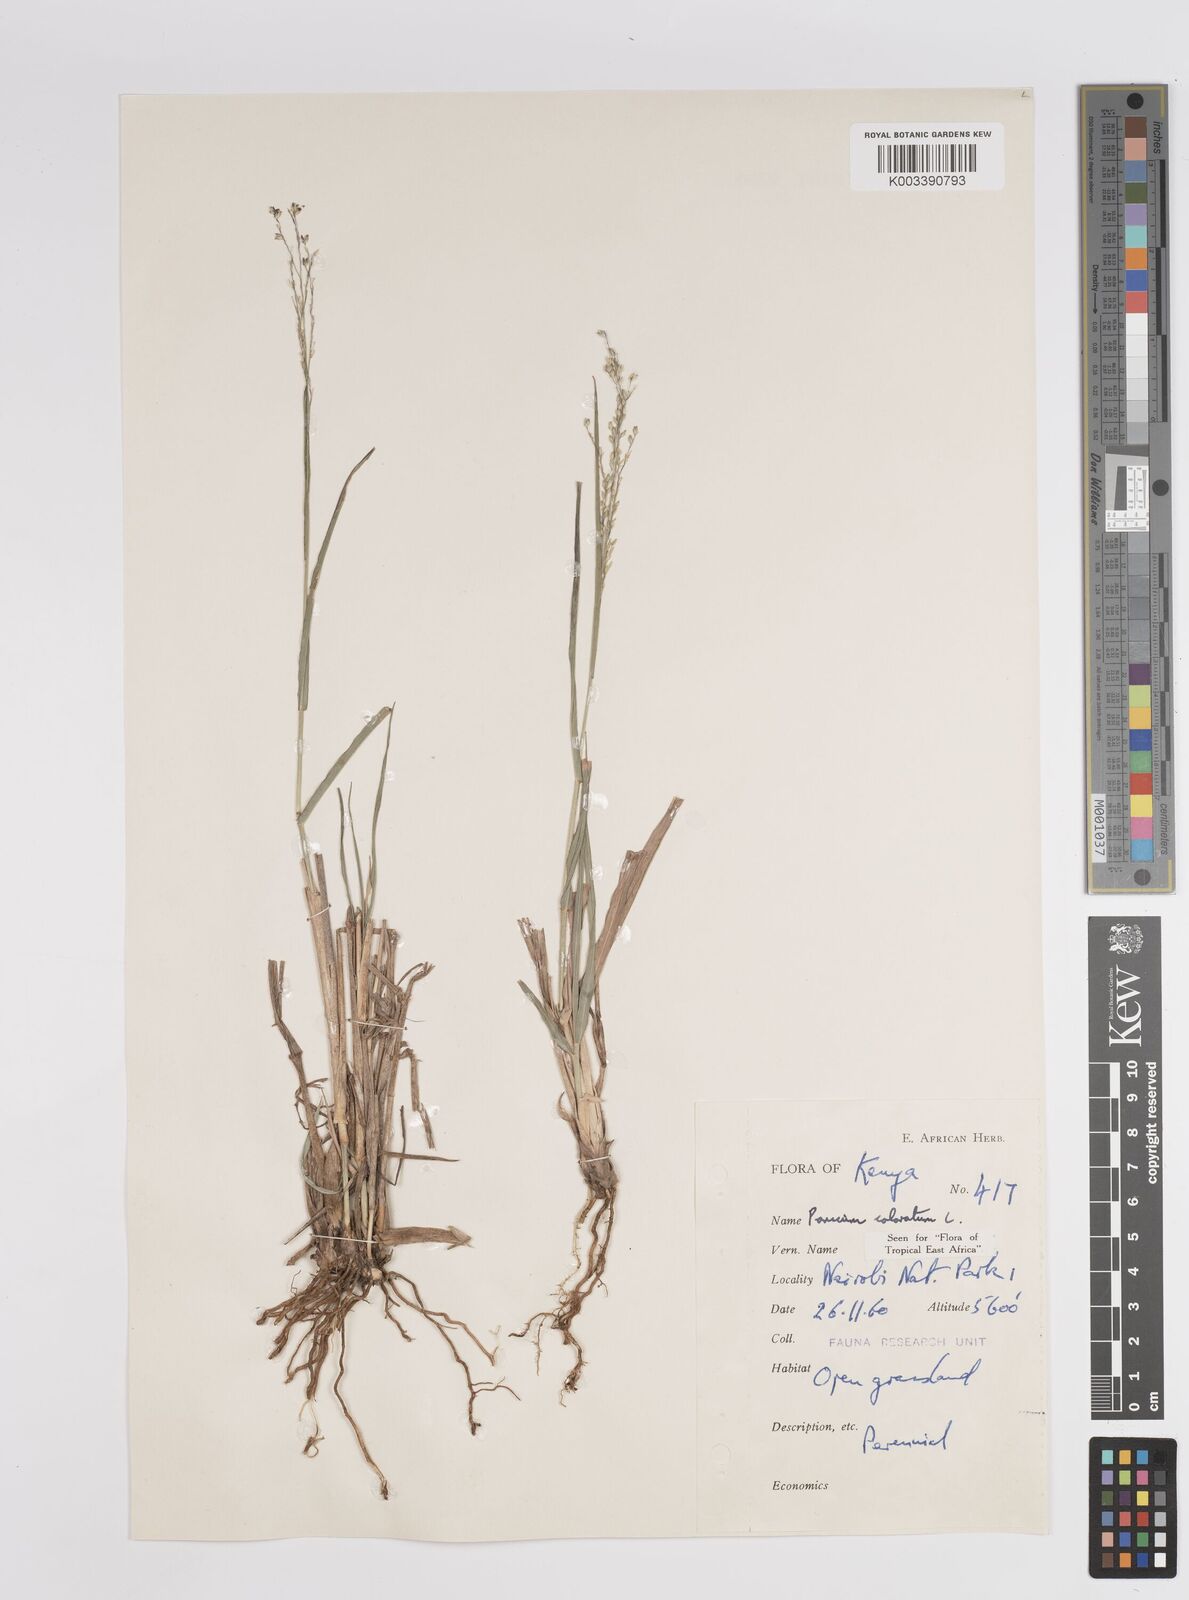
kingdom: Plantae
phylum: Tracheophyta
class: Liliopsida
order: Poales
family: Poaceae
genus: Panicum
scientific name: Panicum coloratum
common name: Kleingrass
